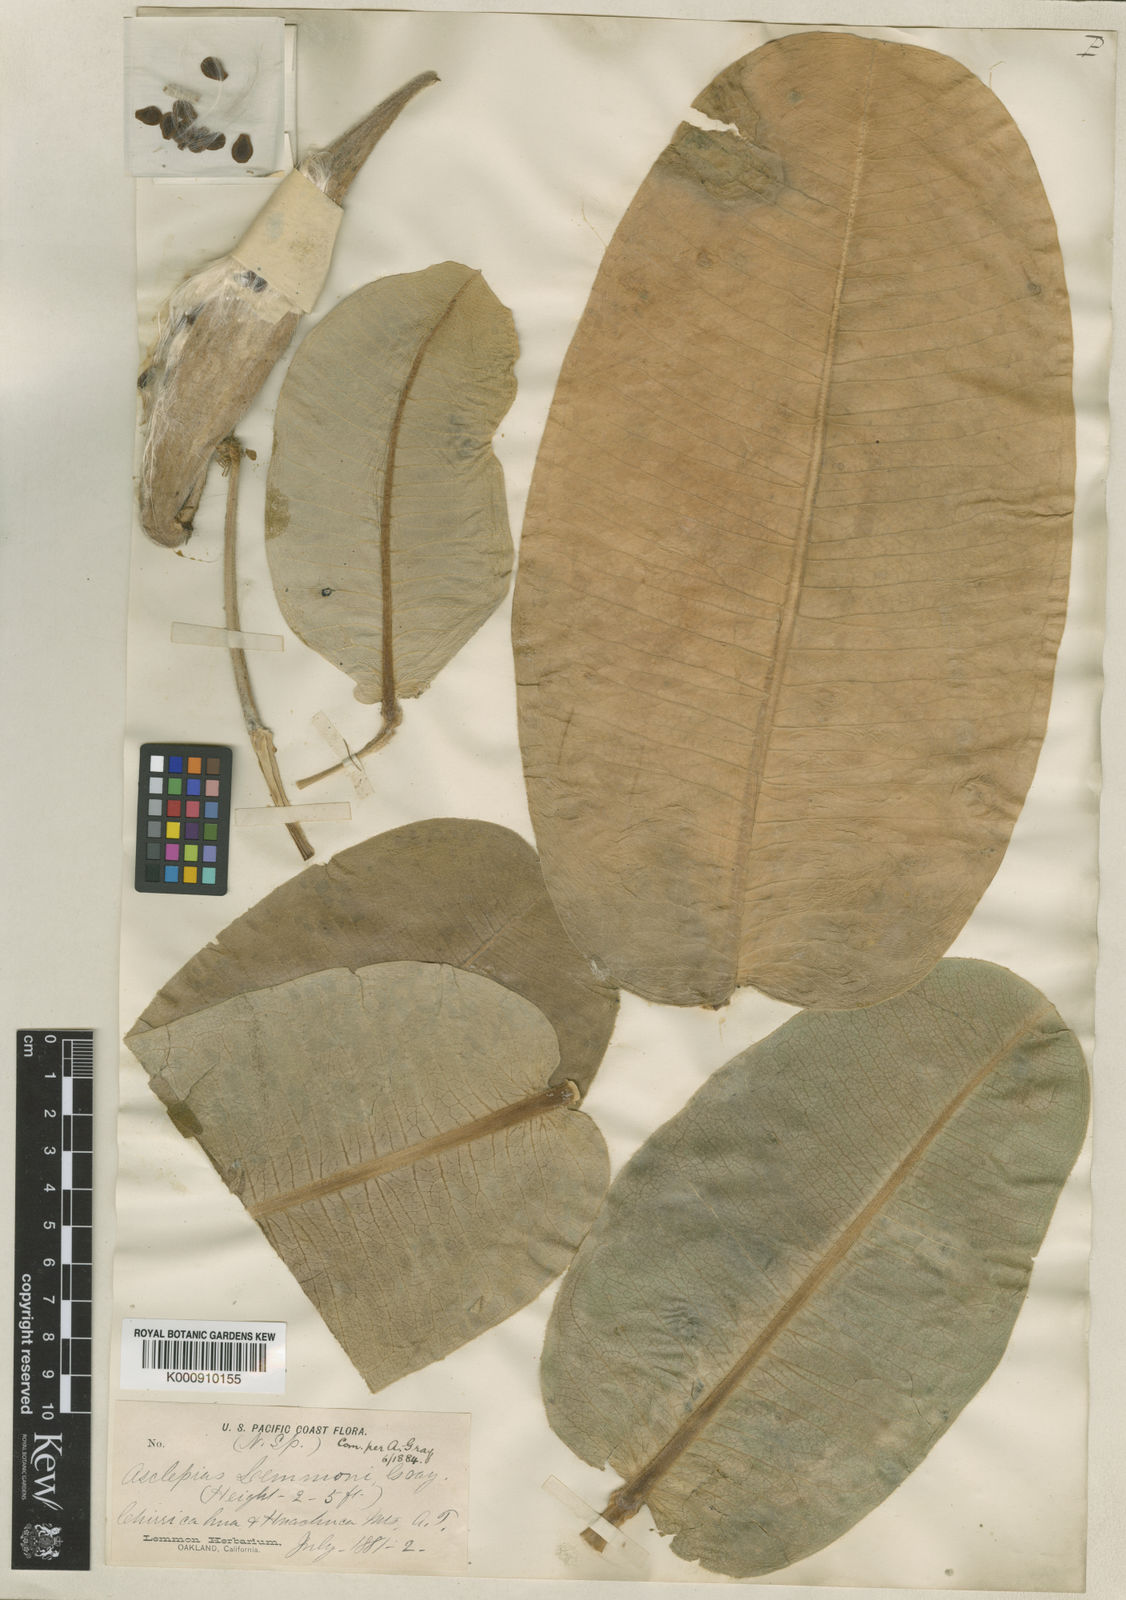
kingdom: Plantae
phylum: Tracheophyta
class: Magnoliopsida
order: Gentianales
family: Apocynaceae
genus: Asclepias
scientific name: Asclepias lemmonii
